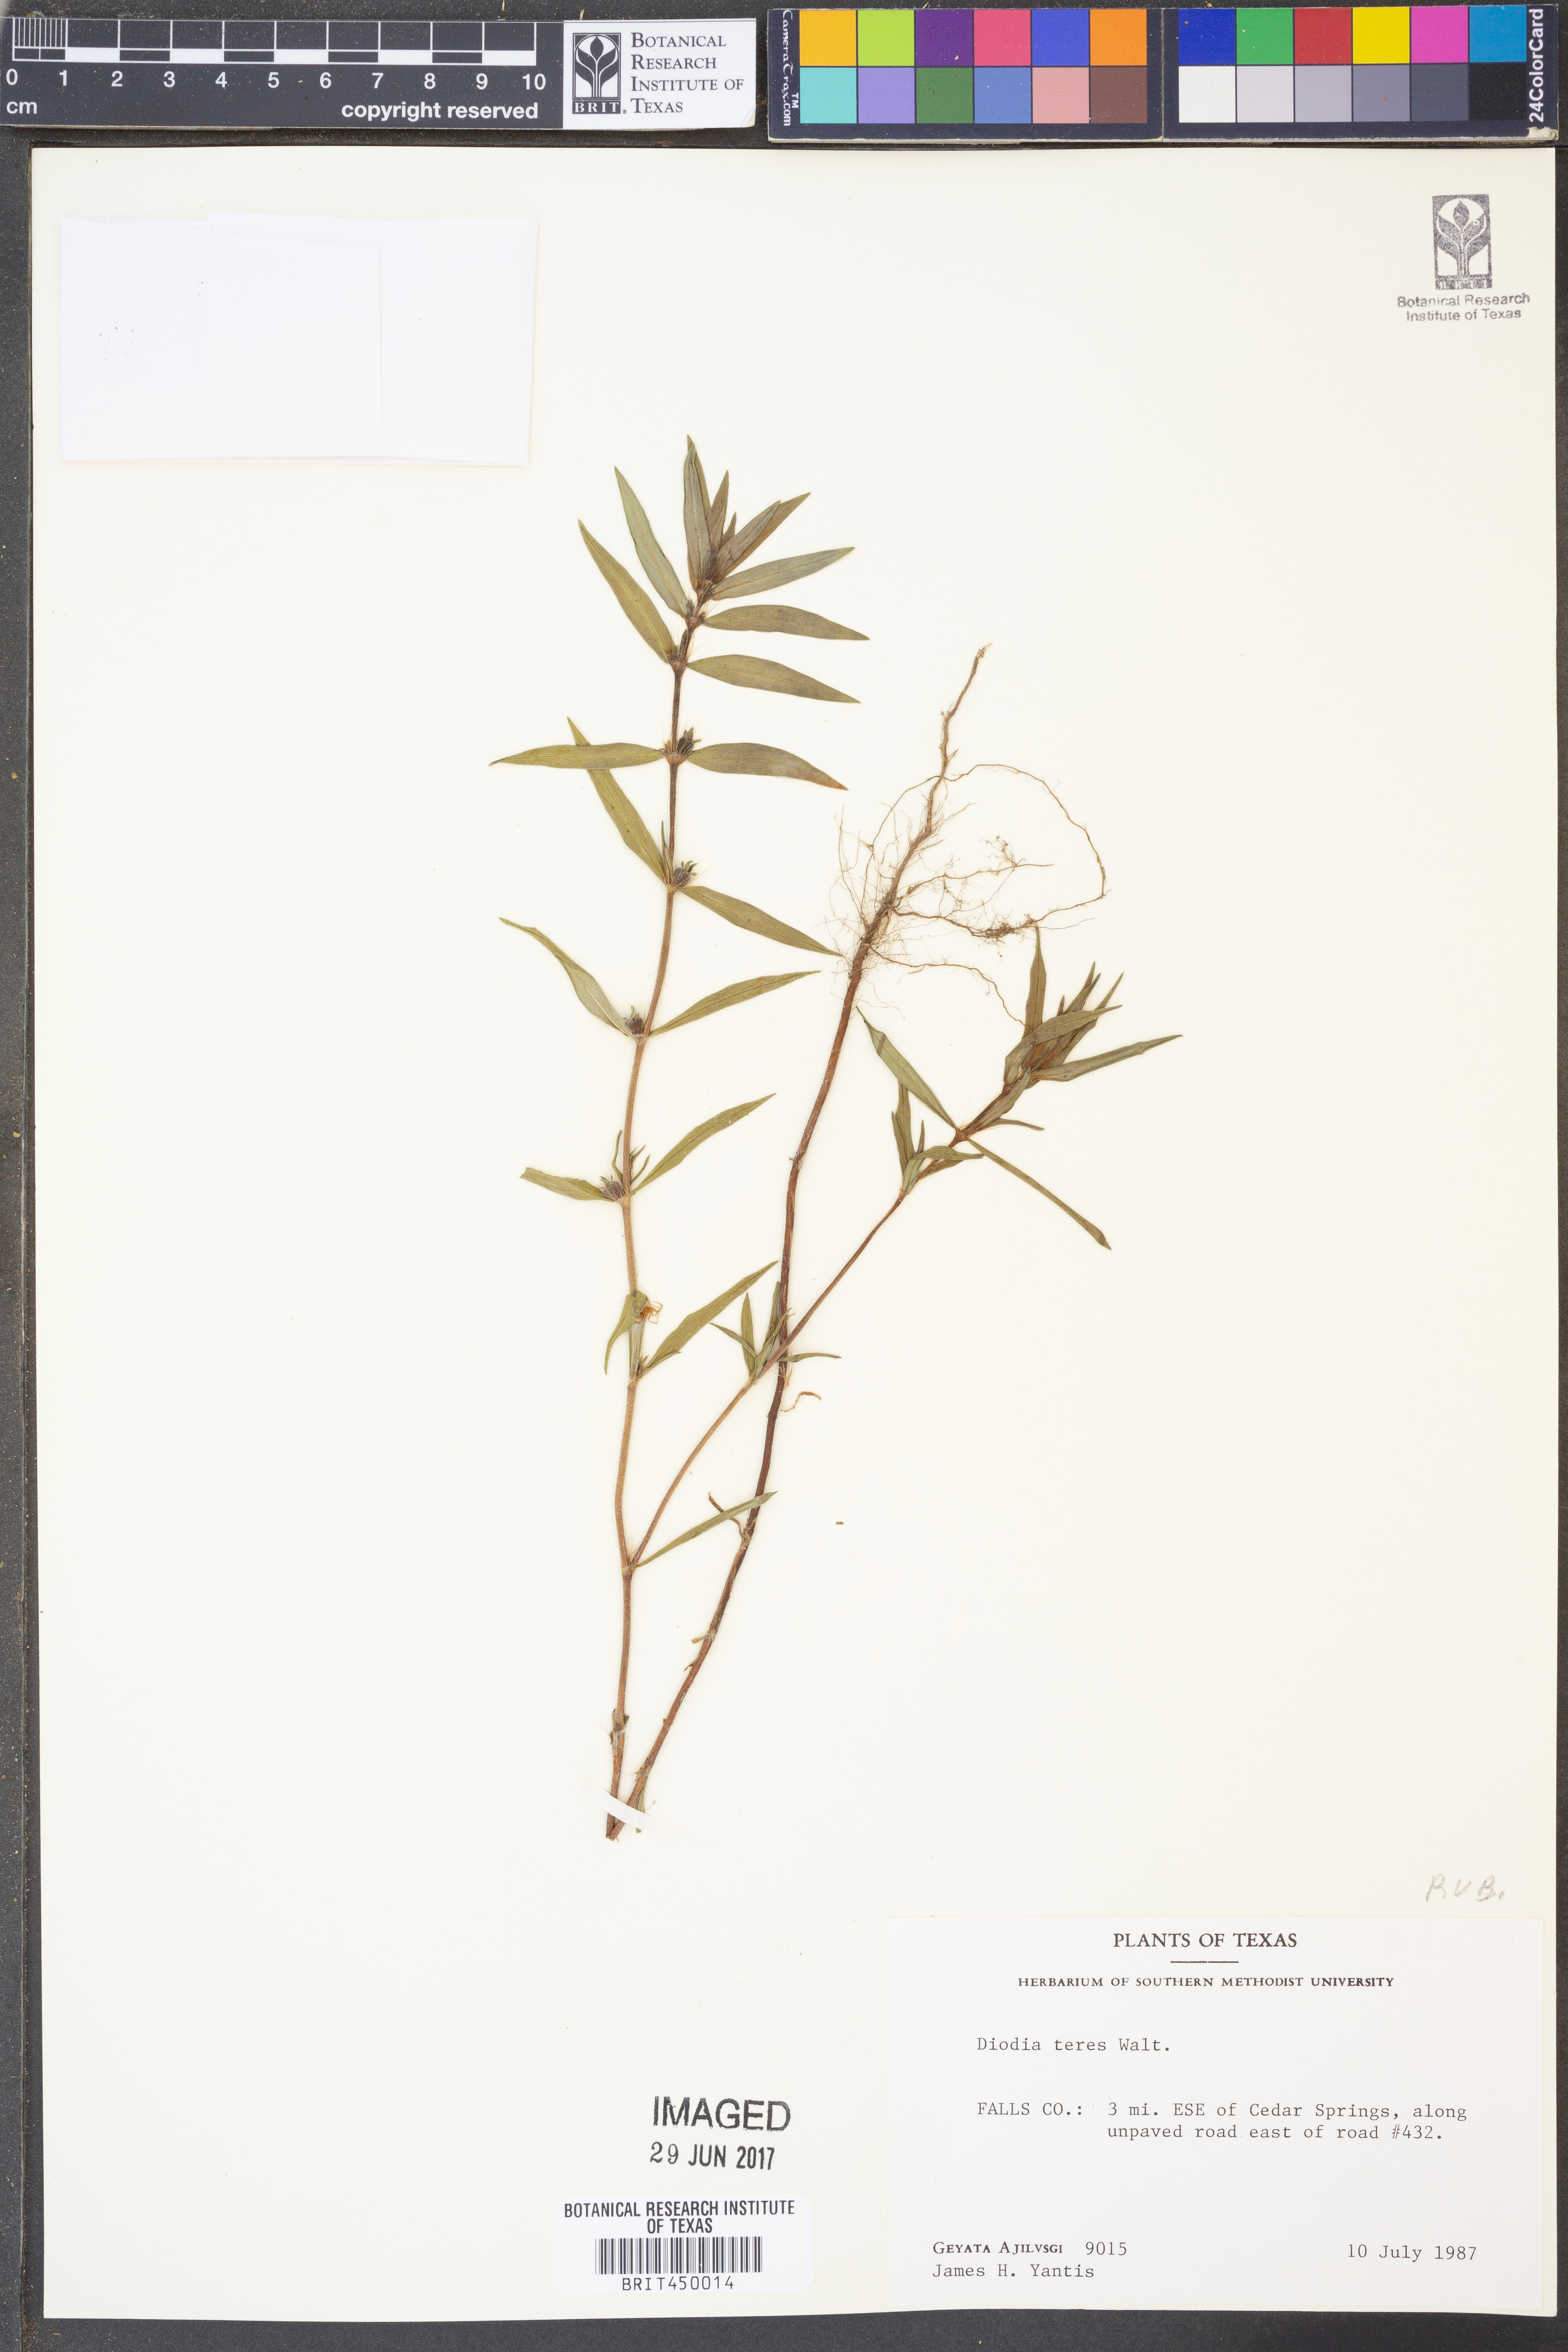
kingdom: Plantae
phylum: Tracheophyta
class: Magnoliopsida
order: Gentianales
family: Rubiaceae
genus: Hexasepalum
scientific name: Hexasepalum teres
